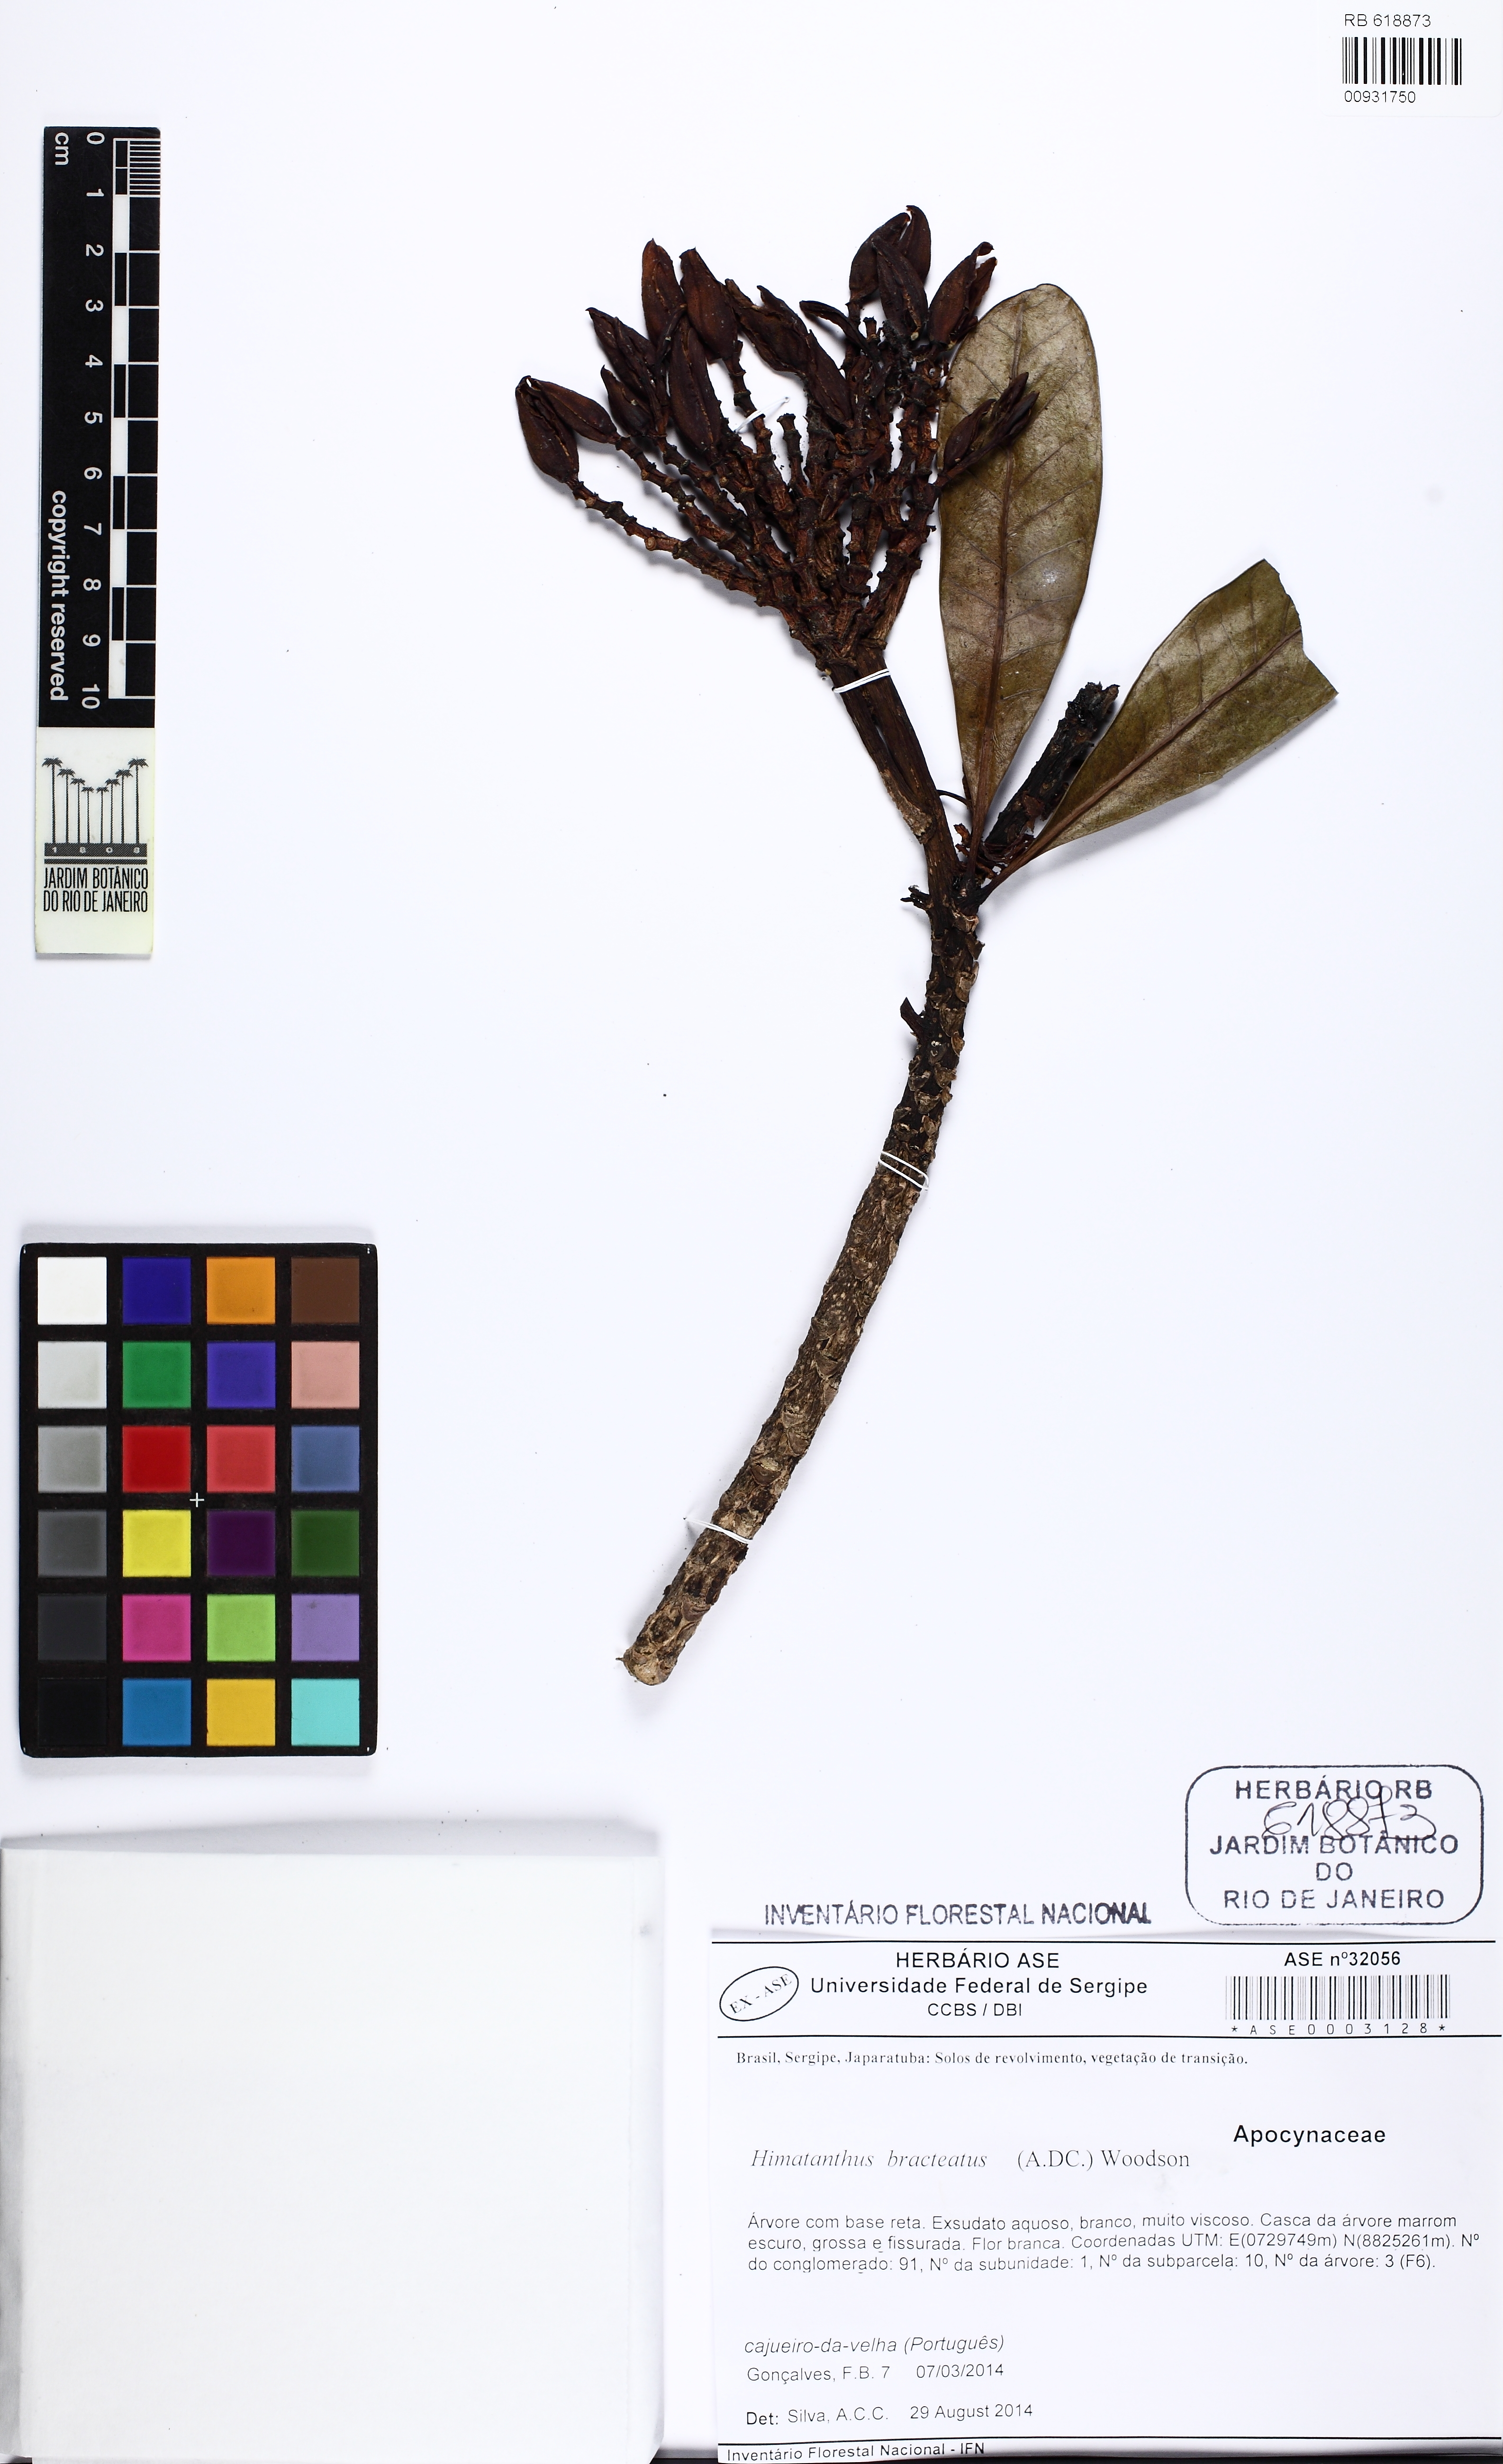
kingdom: Plantae
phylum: Tracheophyta
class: Magnoliopsida
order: Gentianales
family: Apocynaceae
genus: Himatanthus
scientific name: Himatanthus bracteatus
